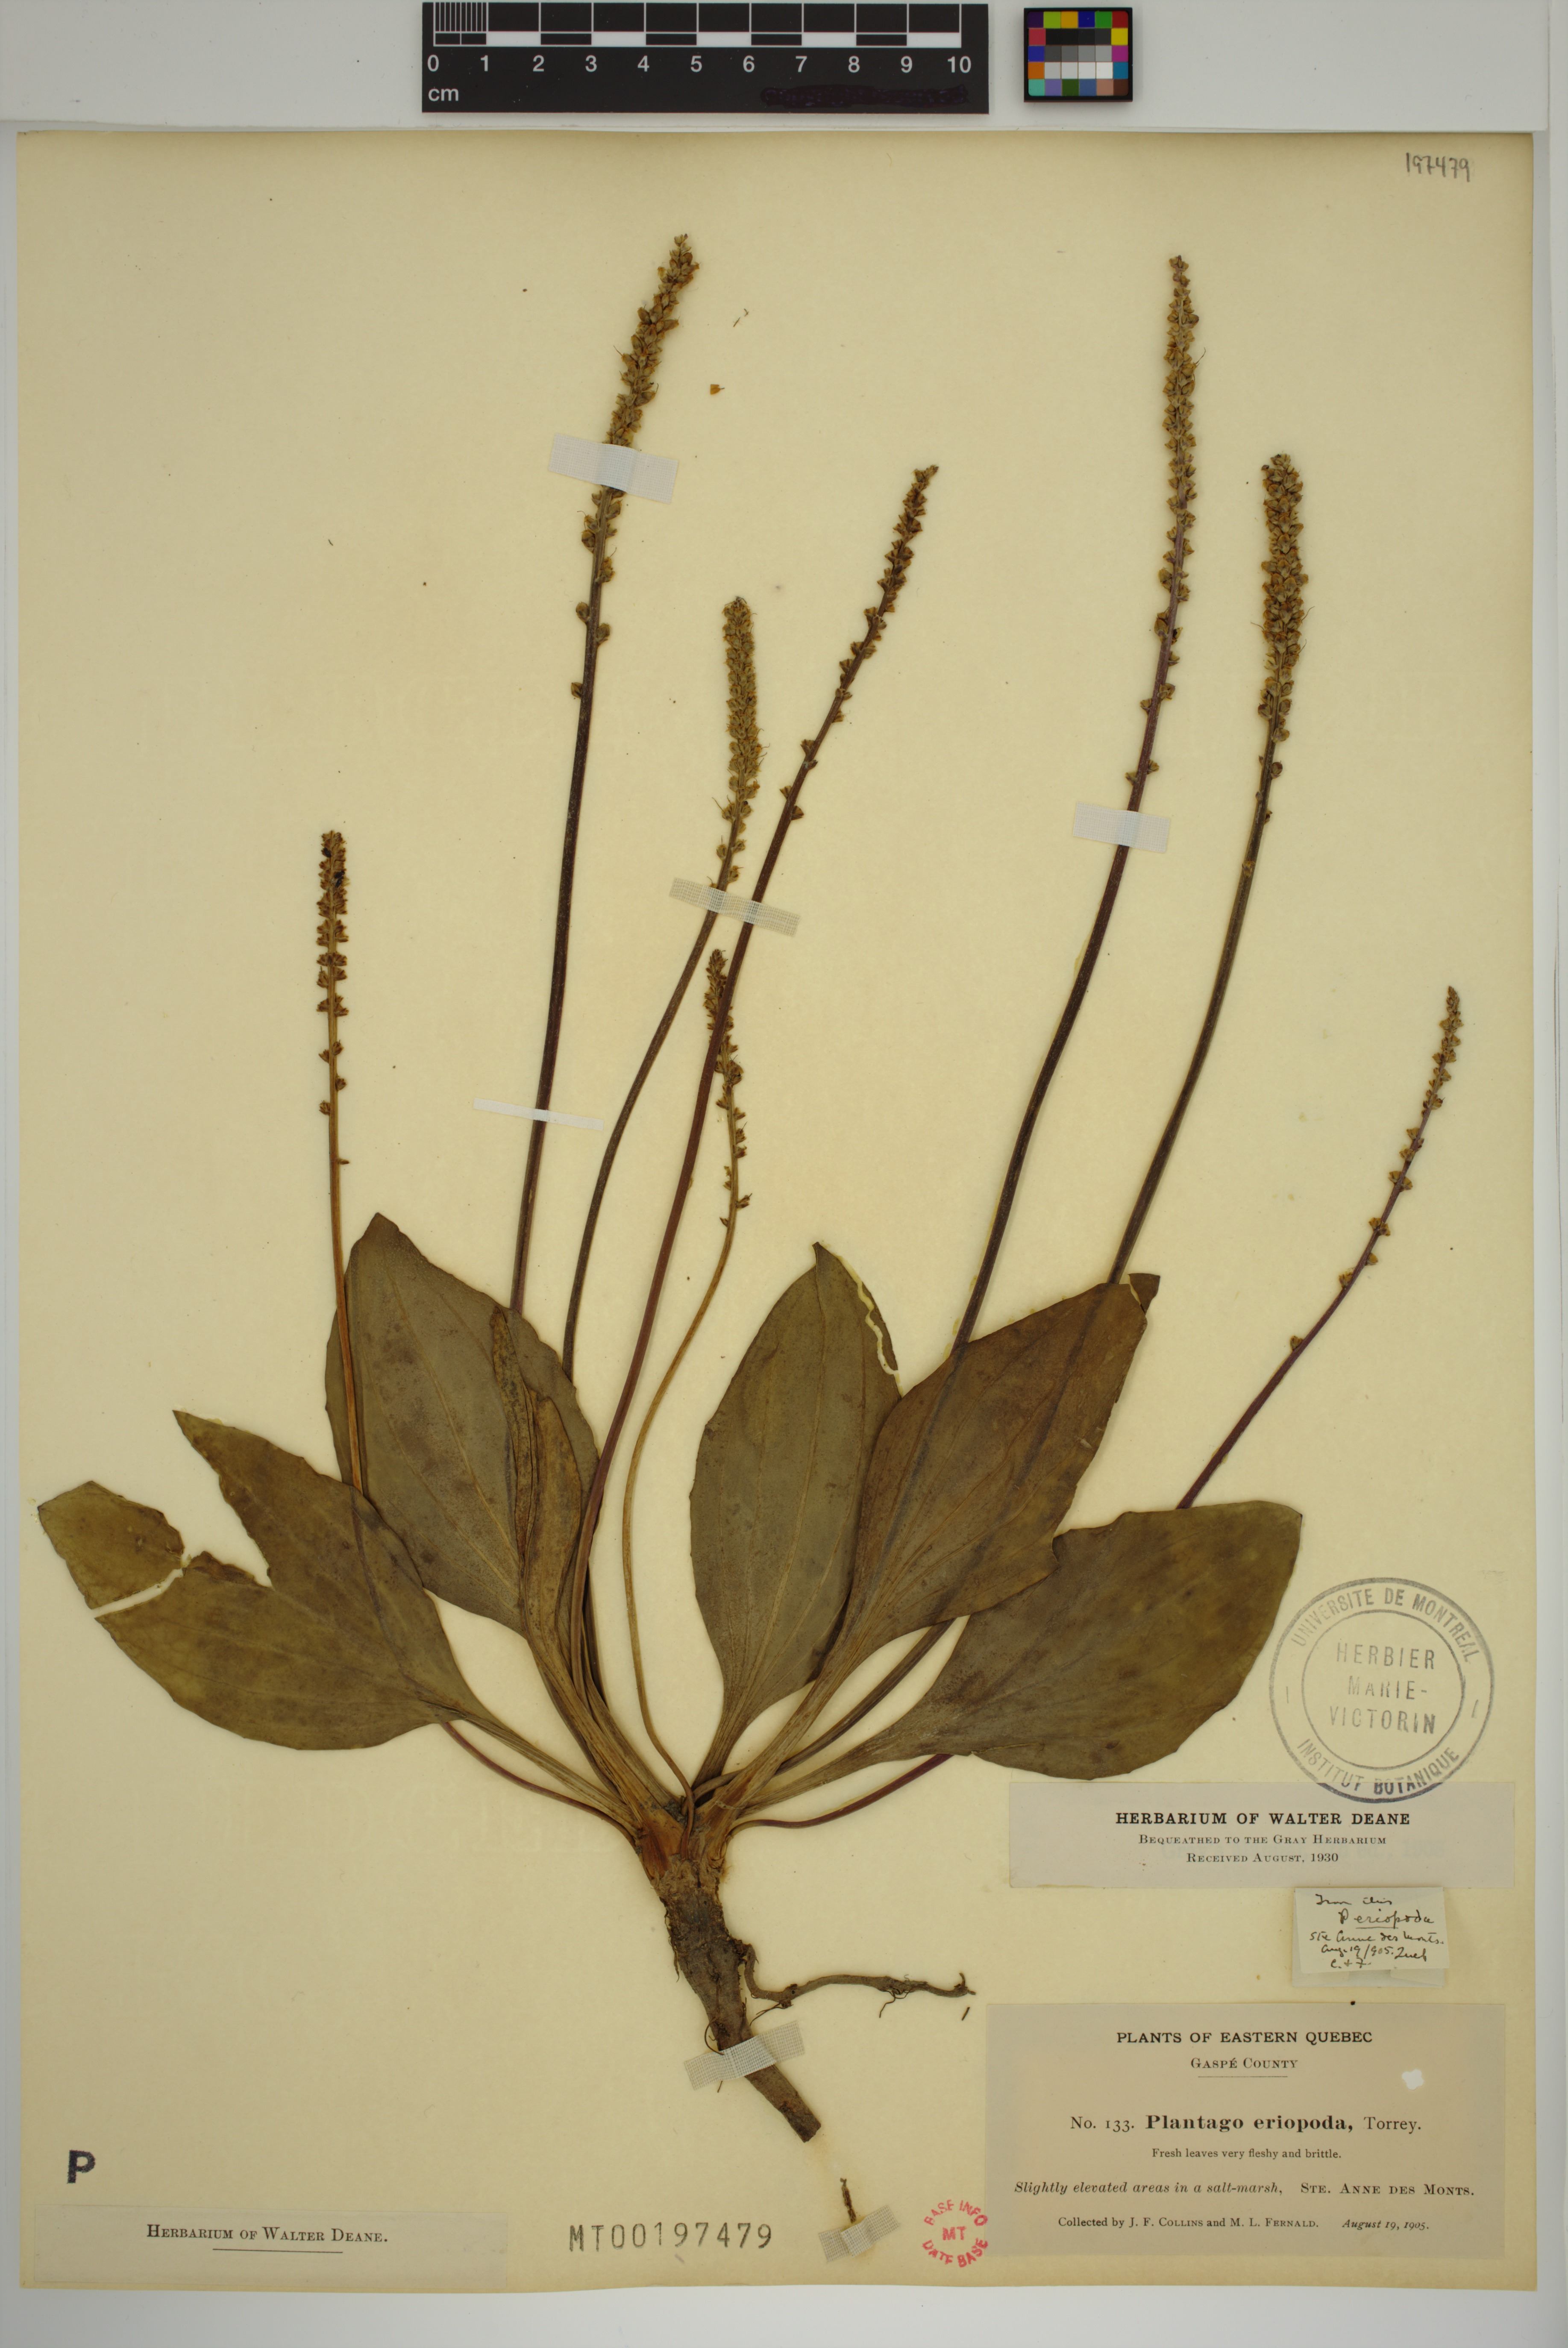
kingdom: Plantae
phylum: Tracheophyta
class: Magnoliopsida
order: Lamiales
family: Plantaginaceae
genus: Plantago
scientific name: Plantago eriopoda
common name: Alkali plantain
